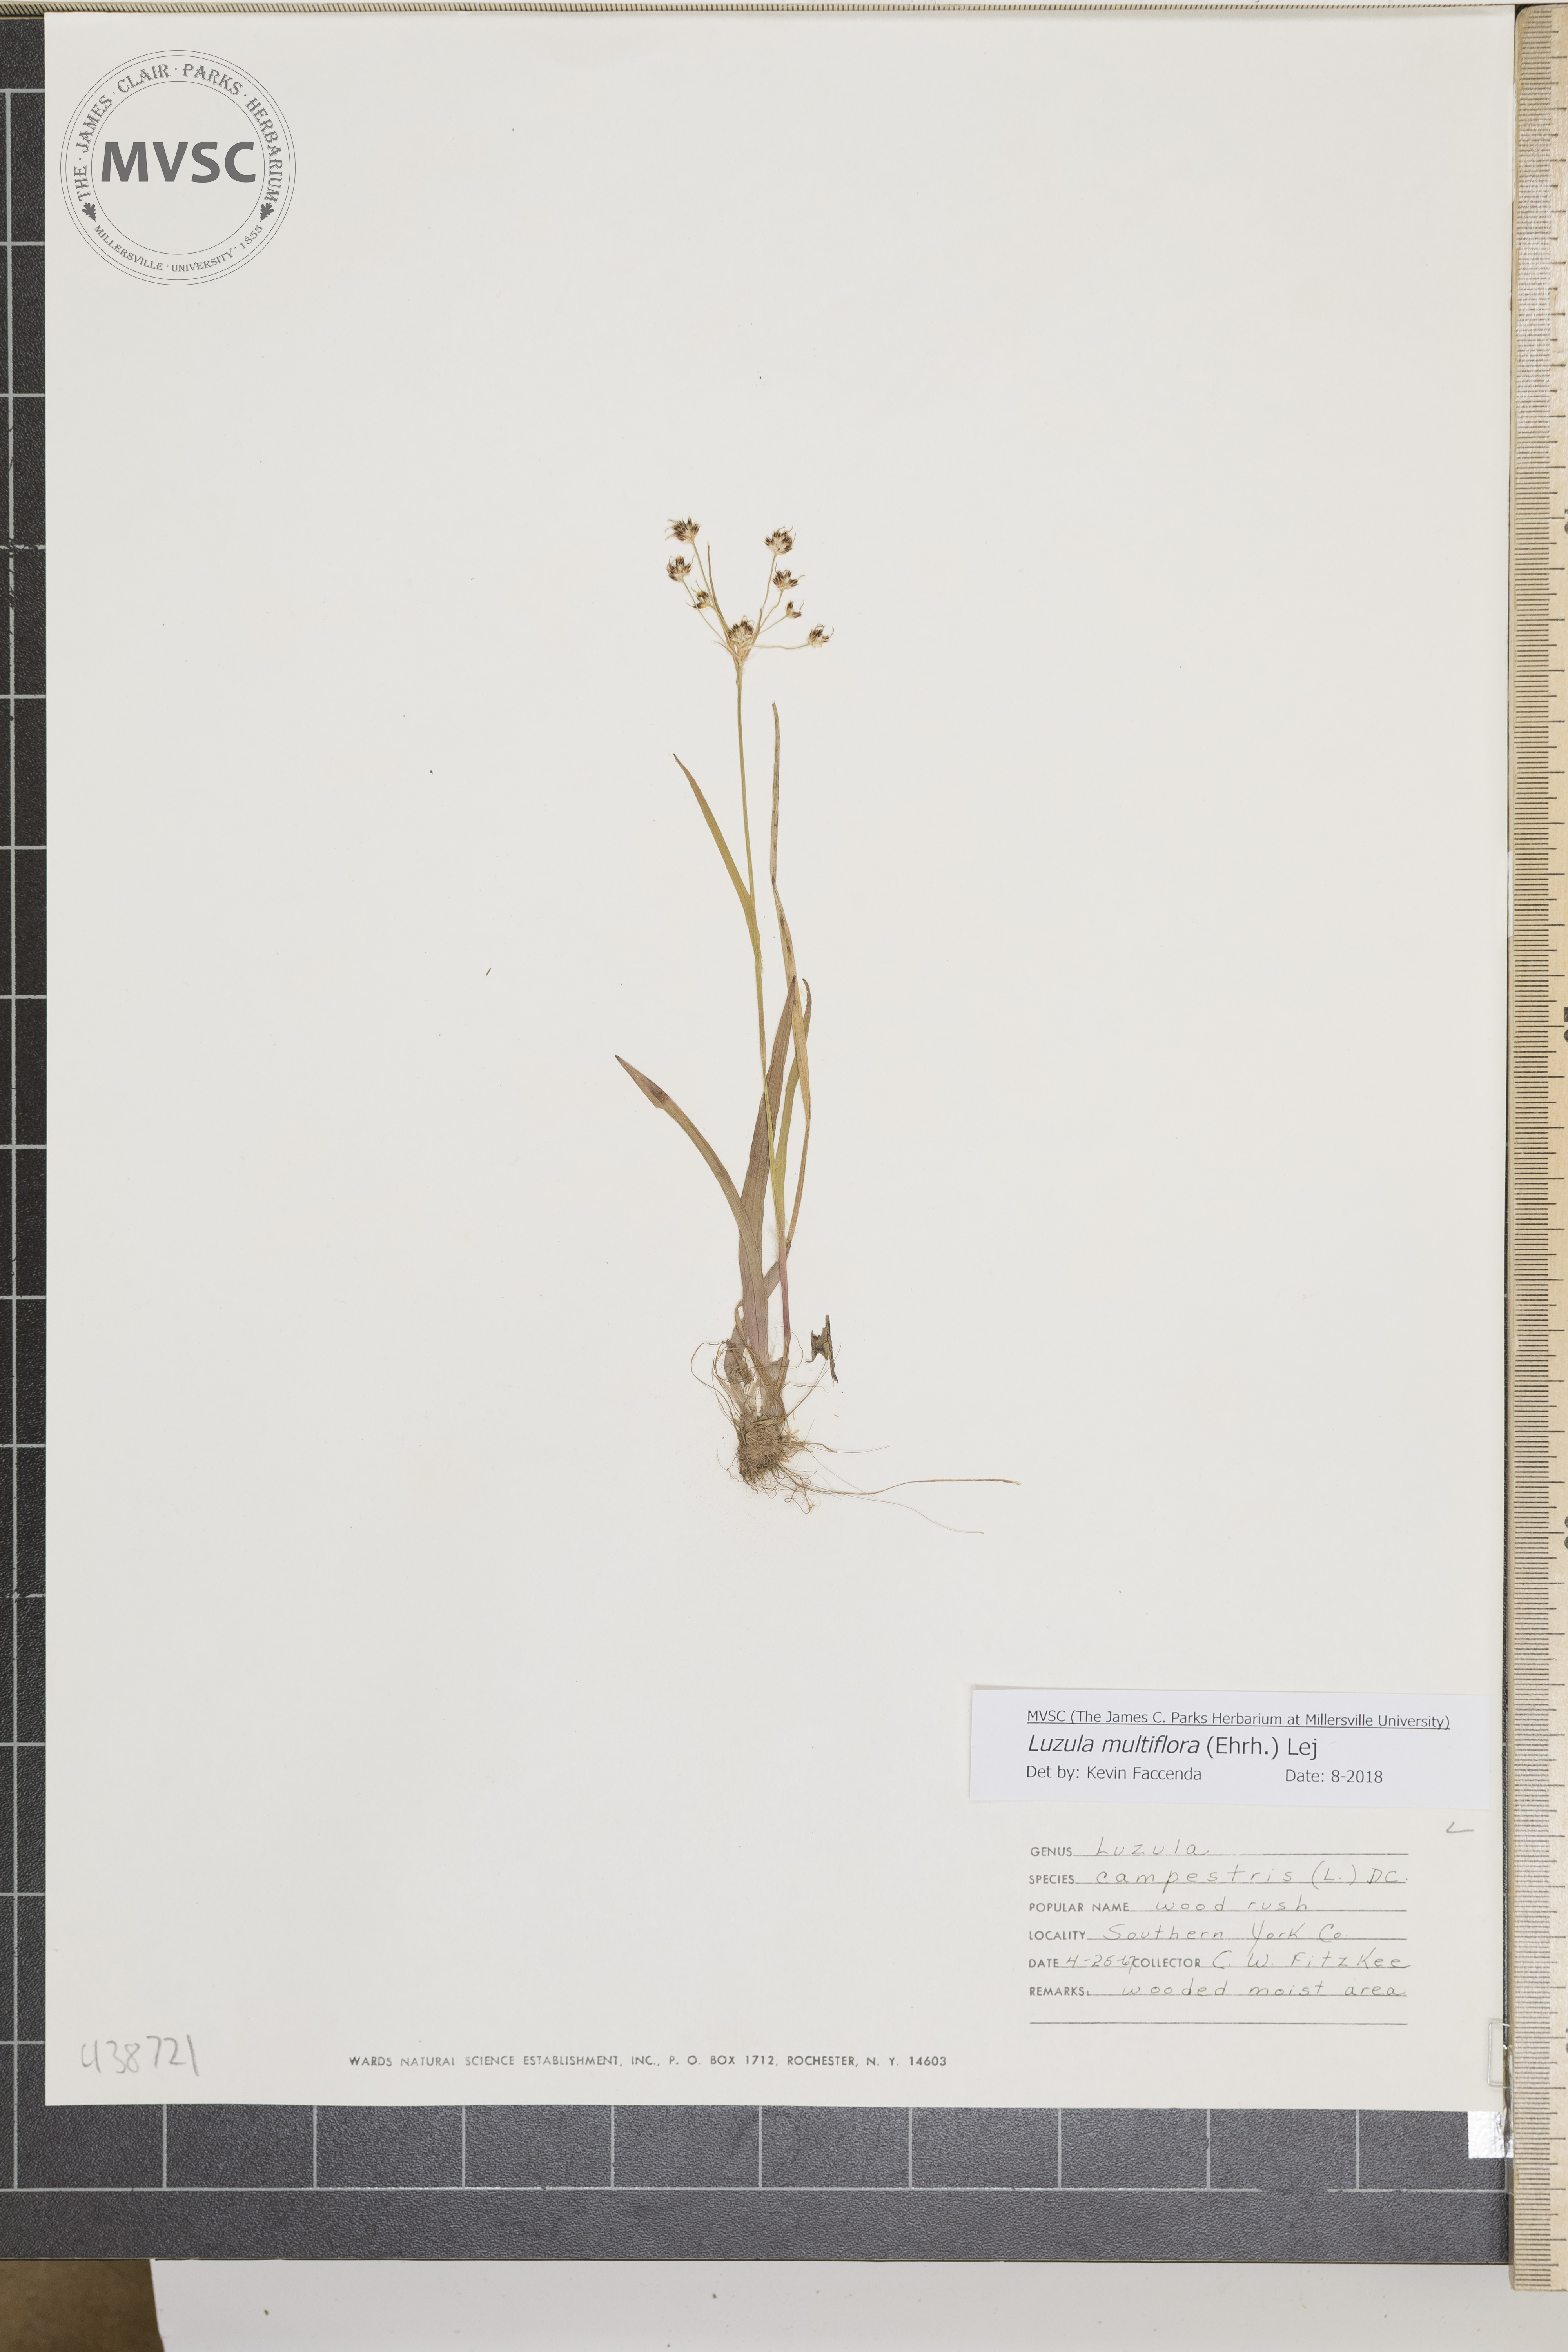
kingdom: Plantae
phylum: Tracheophyta
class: Liliopsida
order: Poales
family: Juncaceae
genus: Luzula
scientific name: Luzula multiflora
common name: Heath wood-rush
